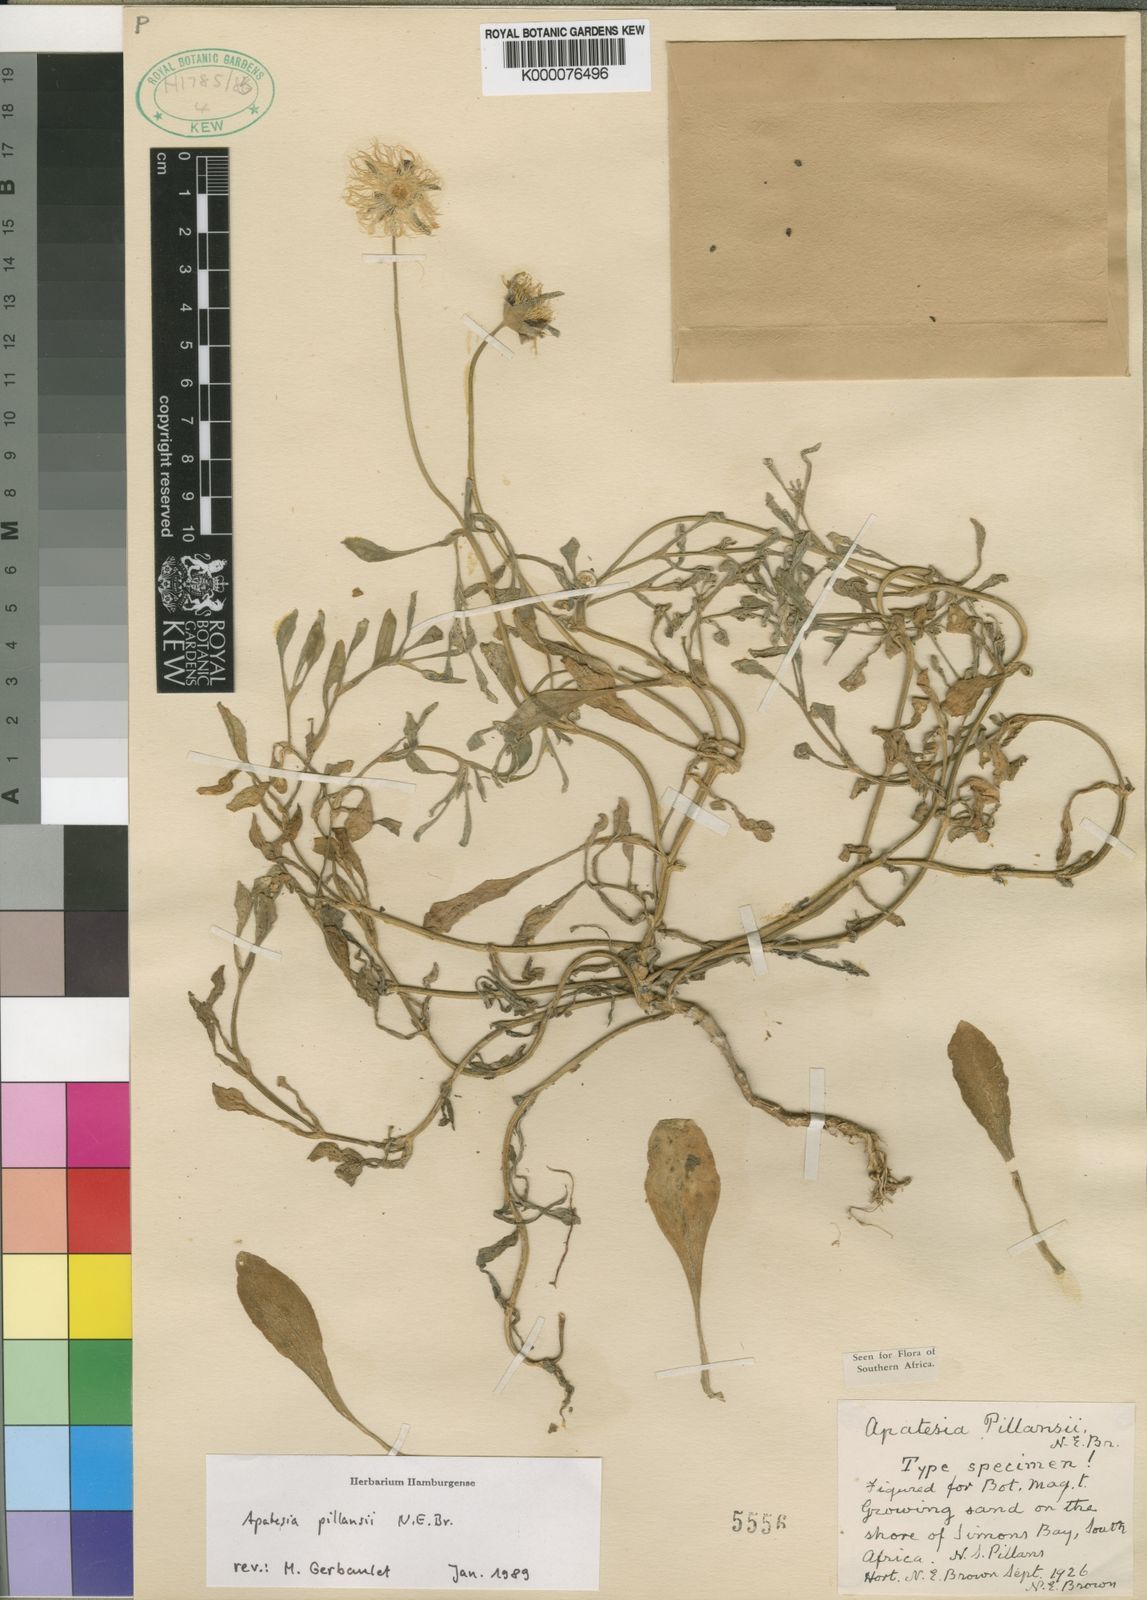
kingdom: Plantae
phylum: Tracheophyta
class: Magnoliopsida
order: Caryophyllales
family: Aizoaceae
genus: Apatesia
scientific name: Apatesia pillansii
